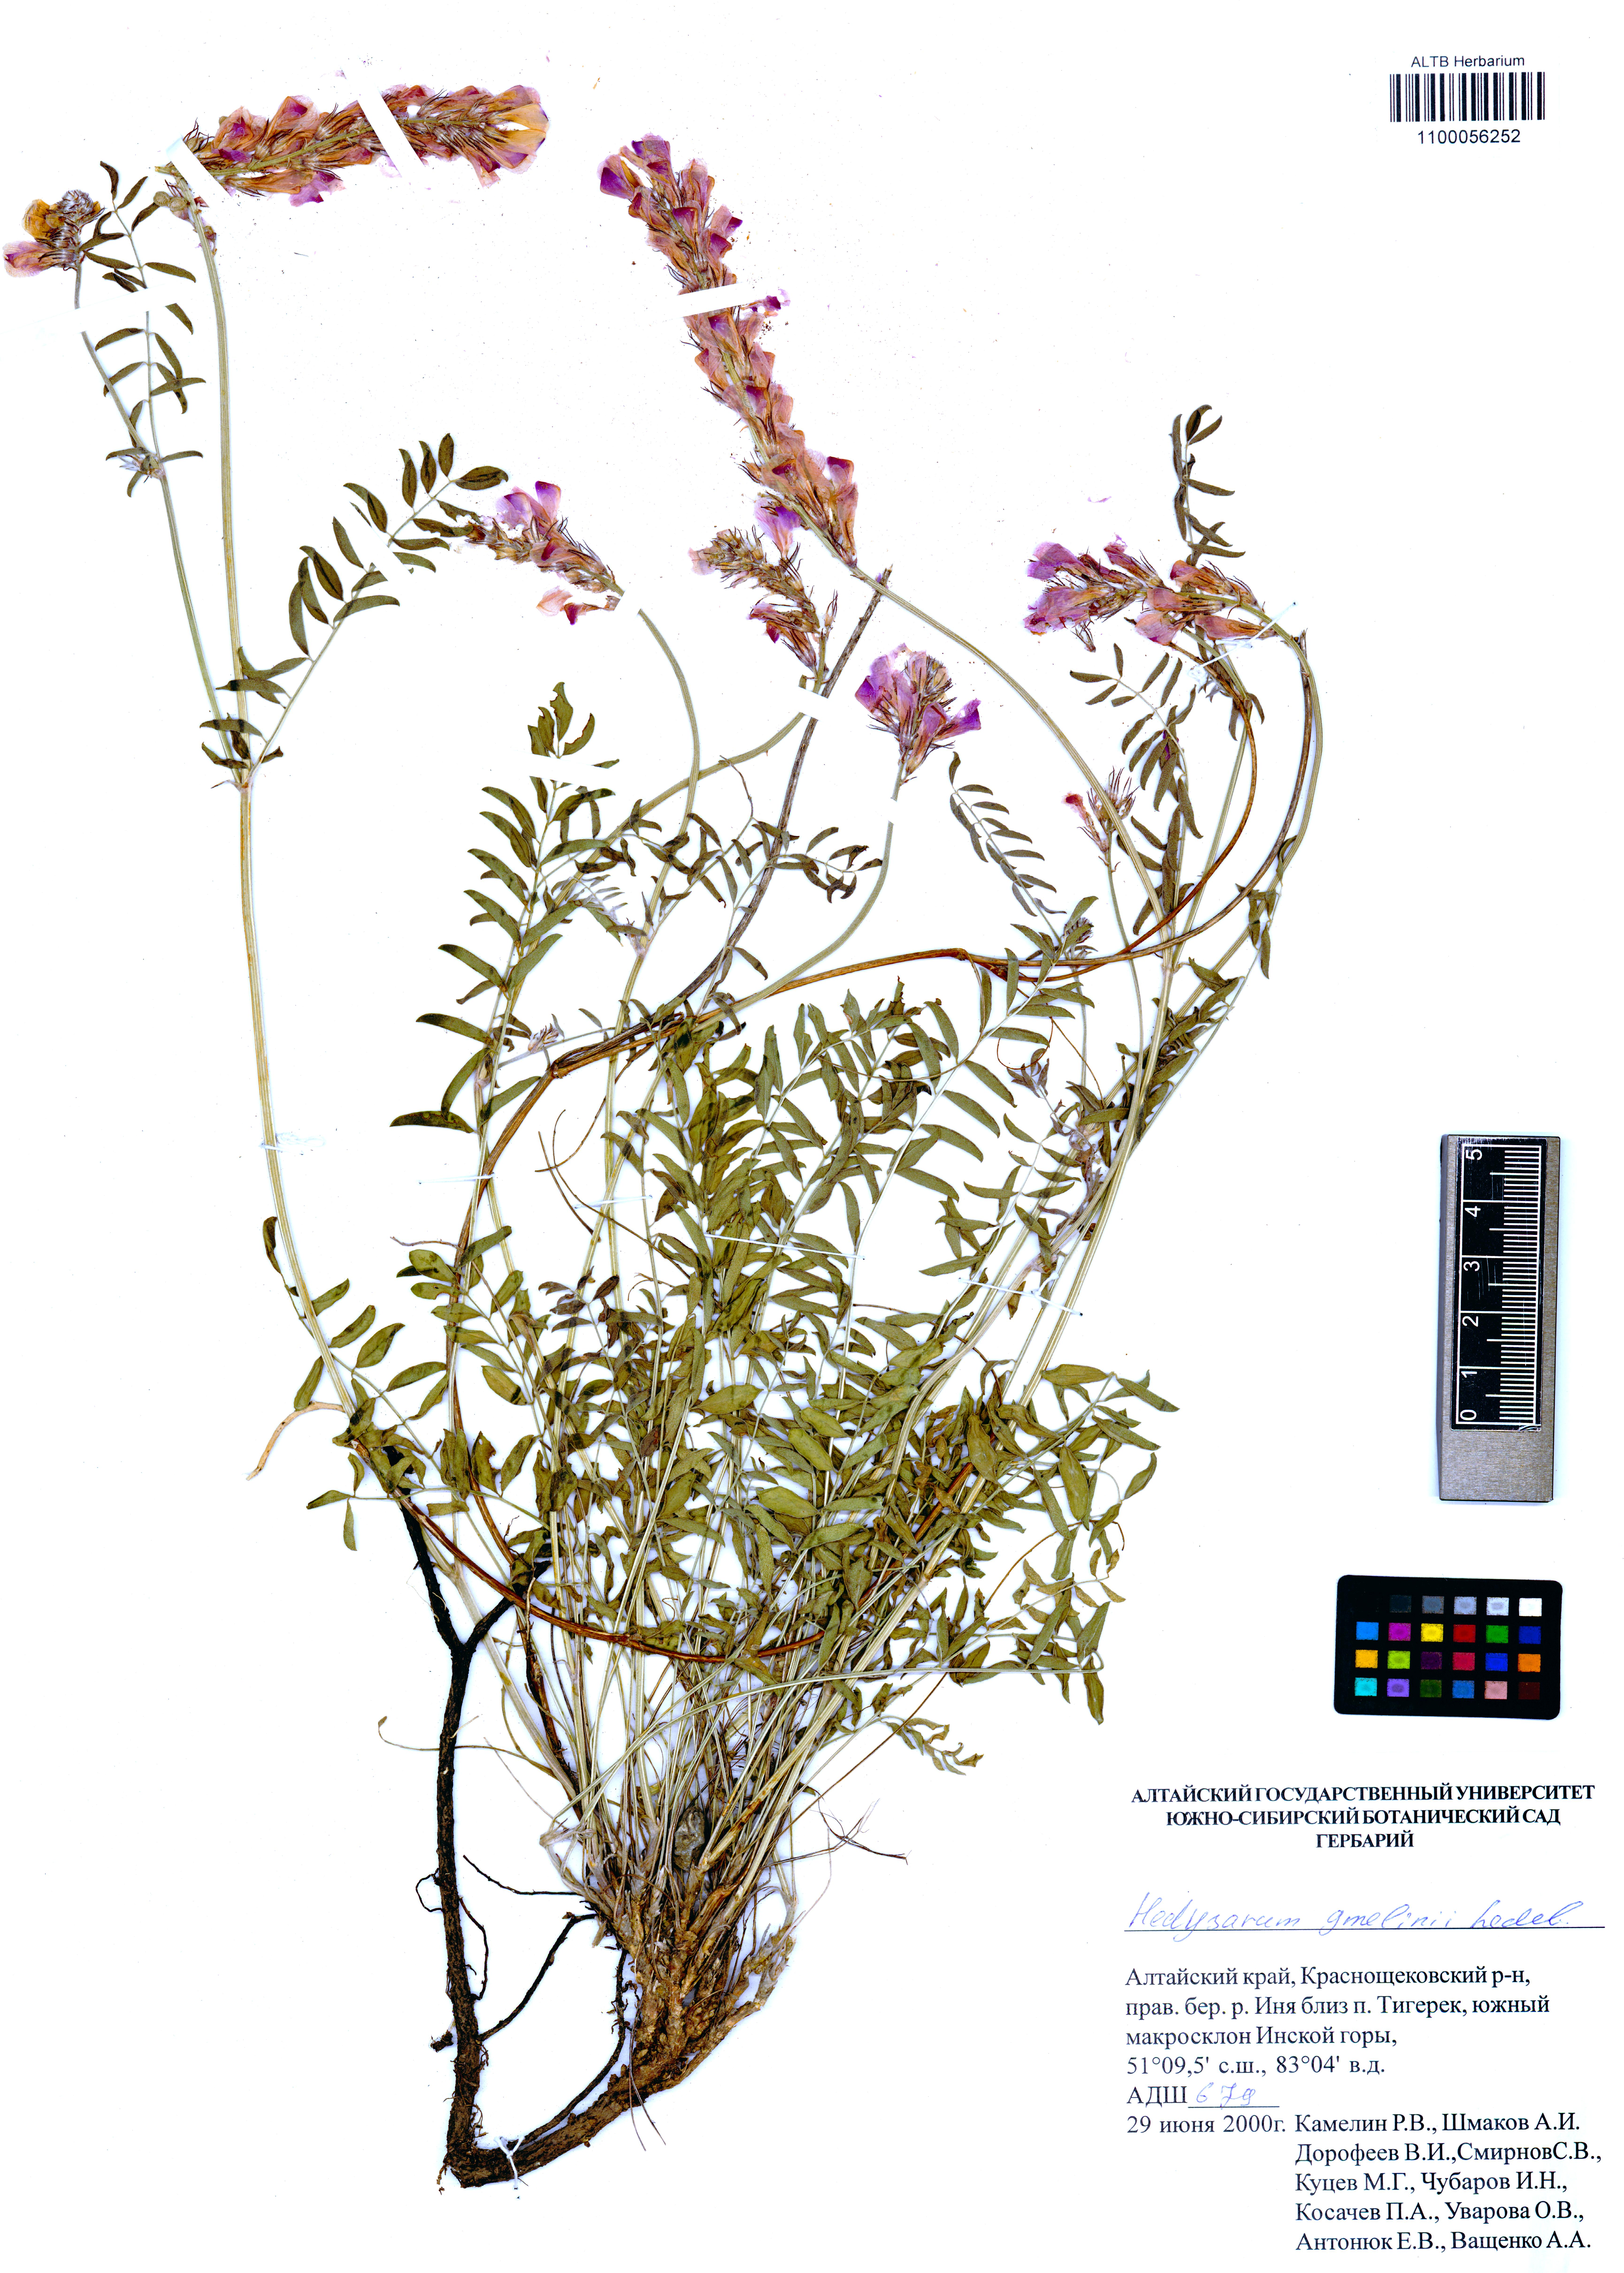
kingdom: Plantae
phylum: Tracheophyta
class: Magnoliopsida
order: Fabales
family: Fabaceae
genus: Hedysarum
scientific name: Hedysarum gmelinii
